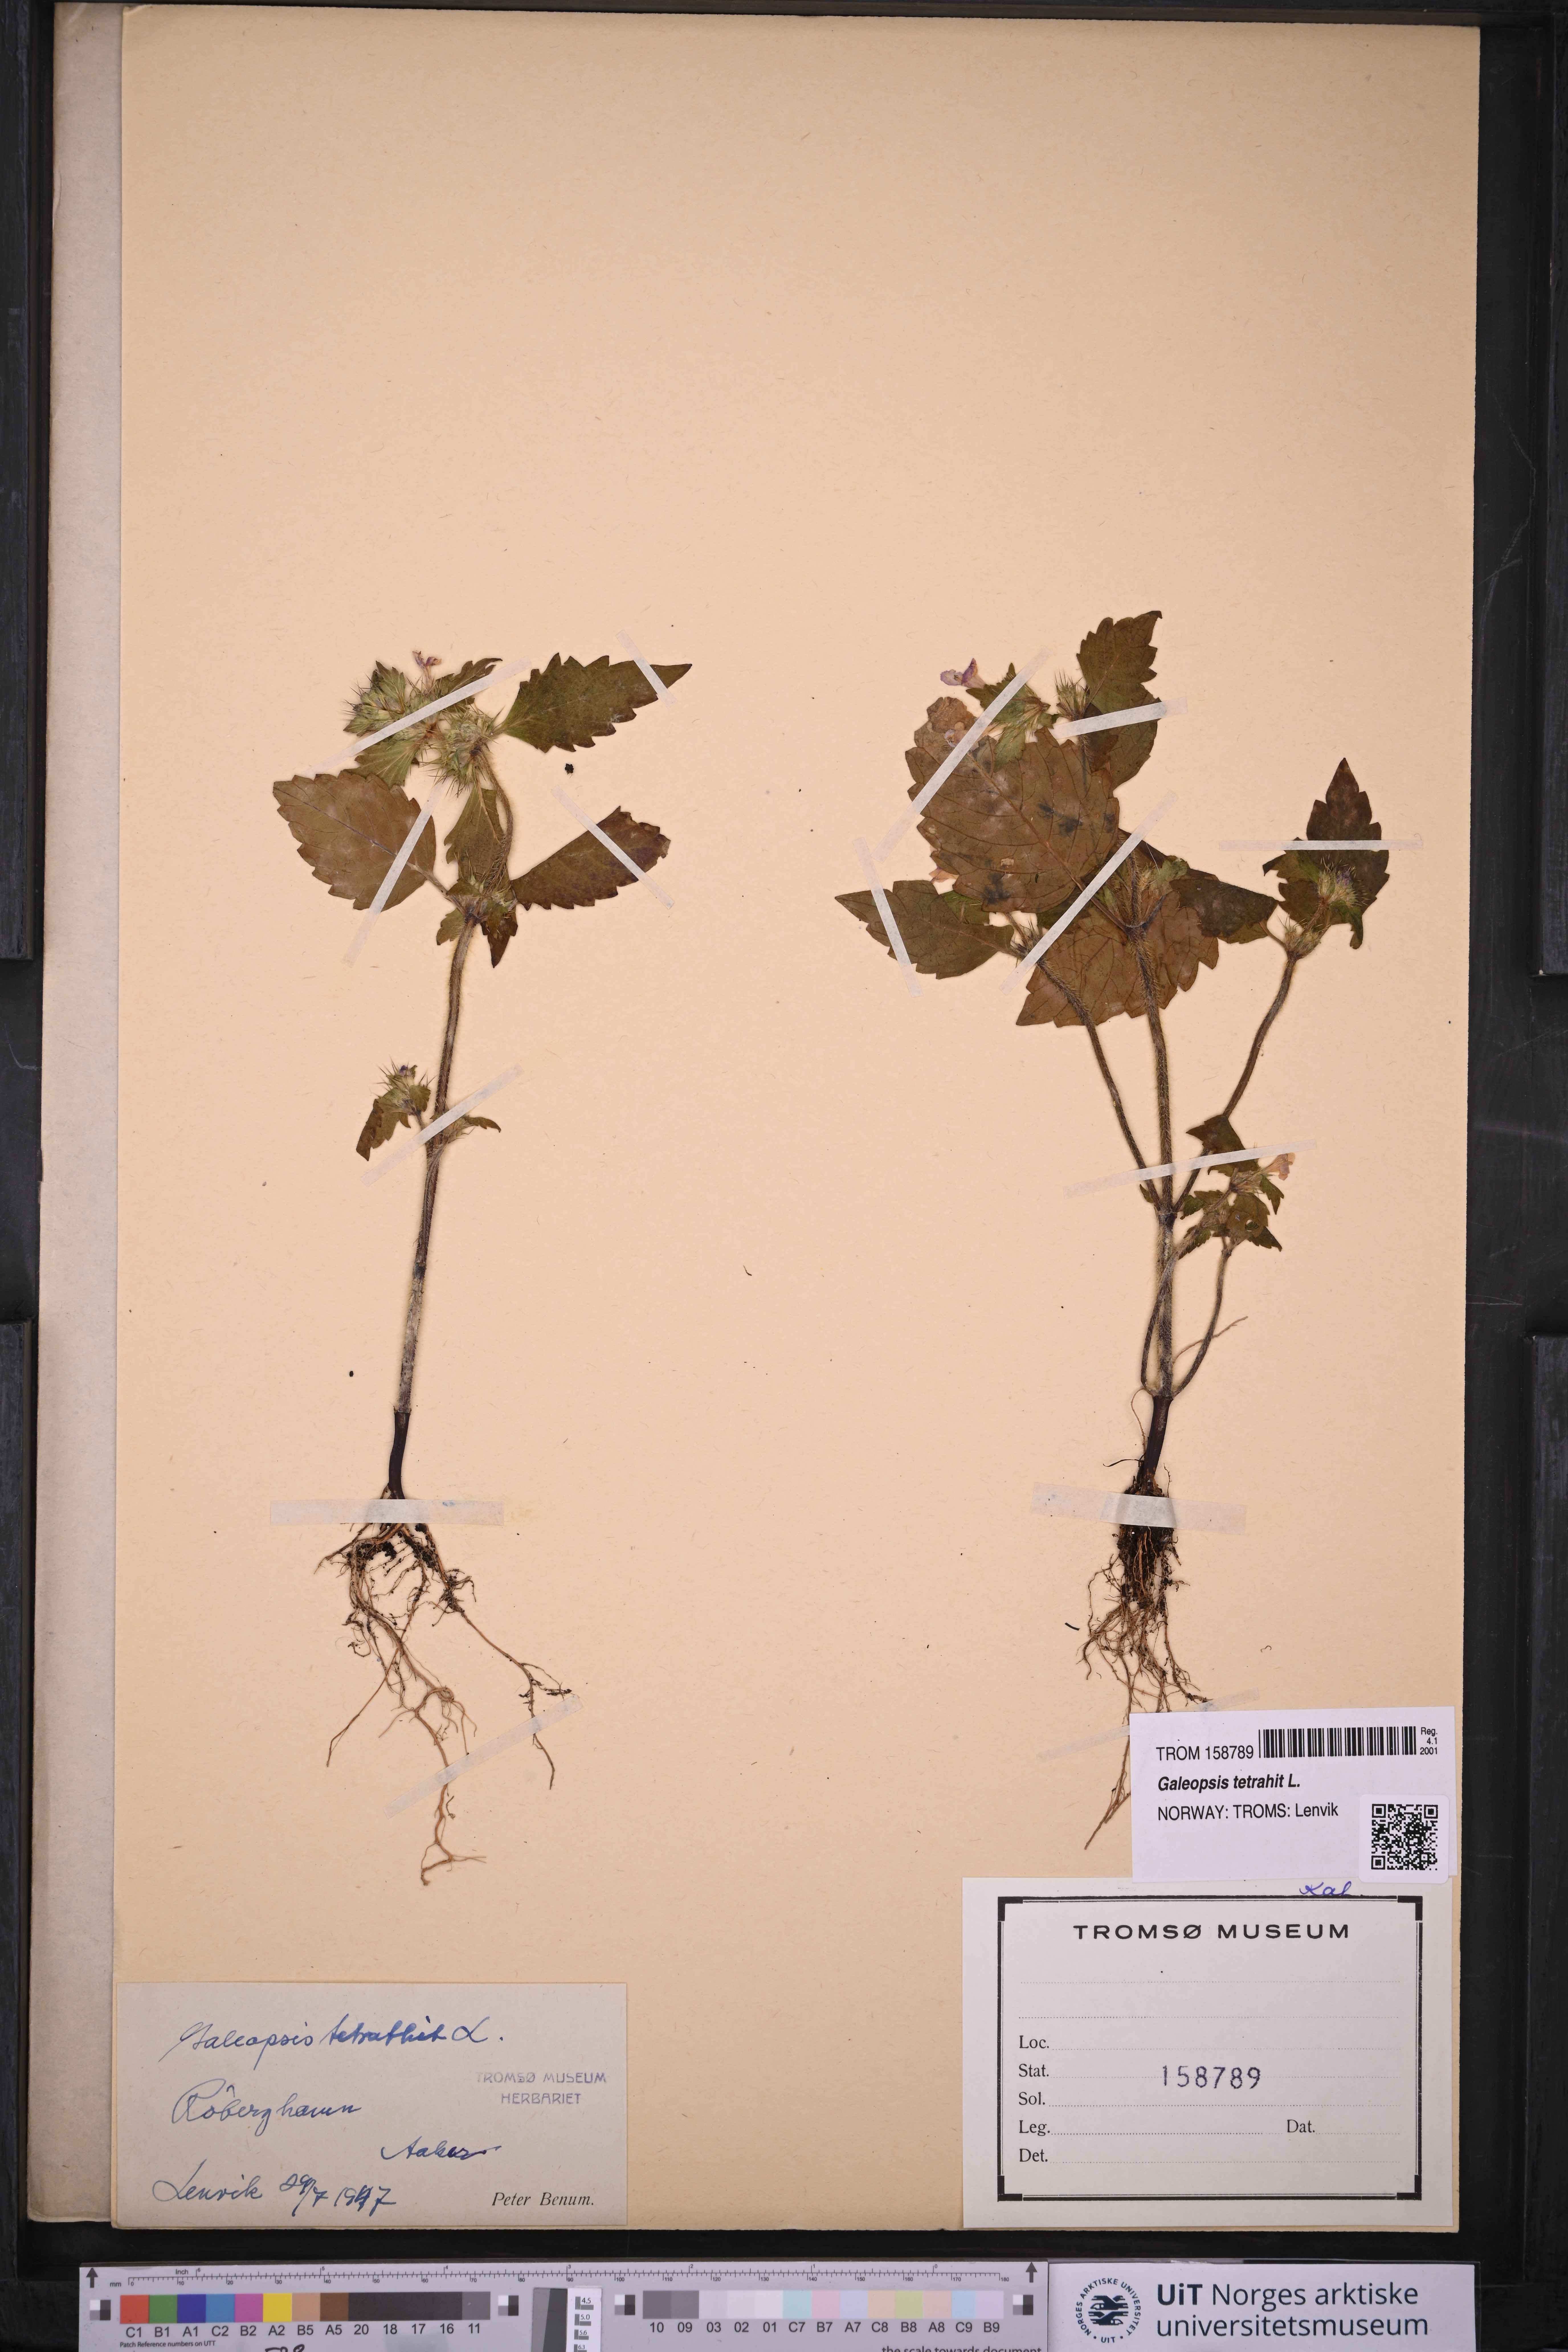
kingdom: Plantae
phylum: Tracheophyta
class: Magnoliopsida
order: Lamiales
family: Lamiaceae
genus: Galeopsis
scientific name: Galeopsis tetrahit
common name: Common hemp-nettle
